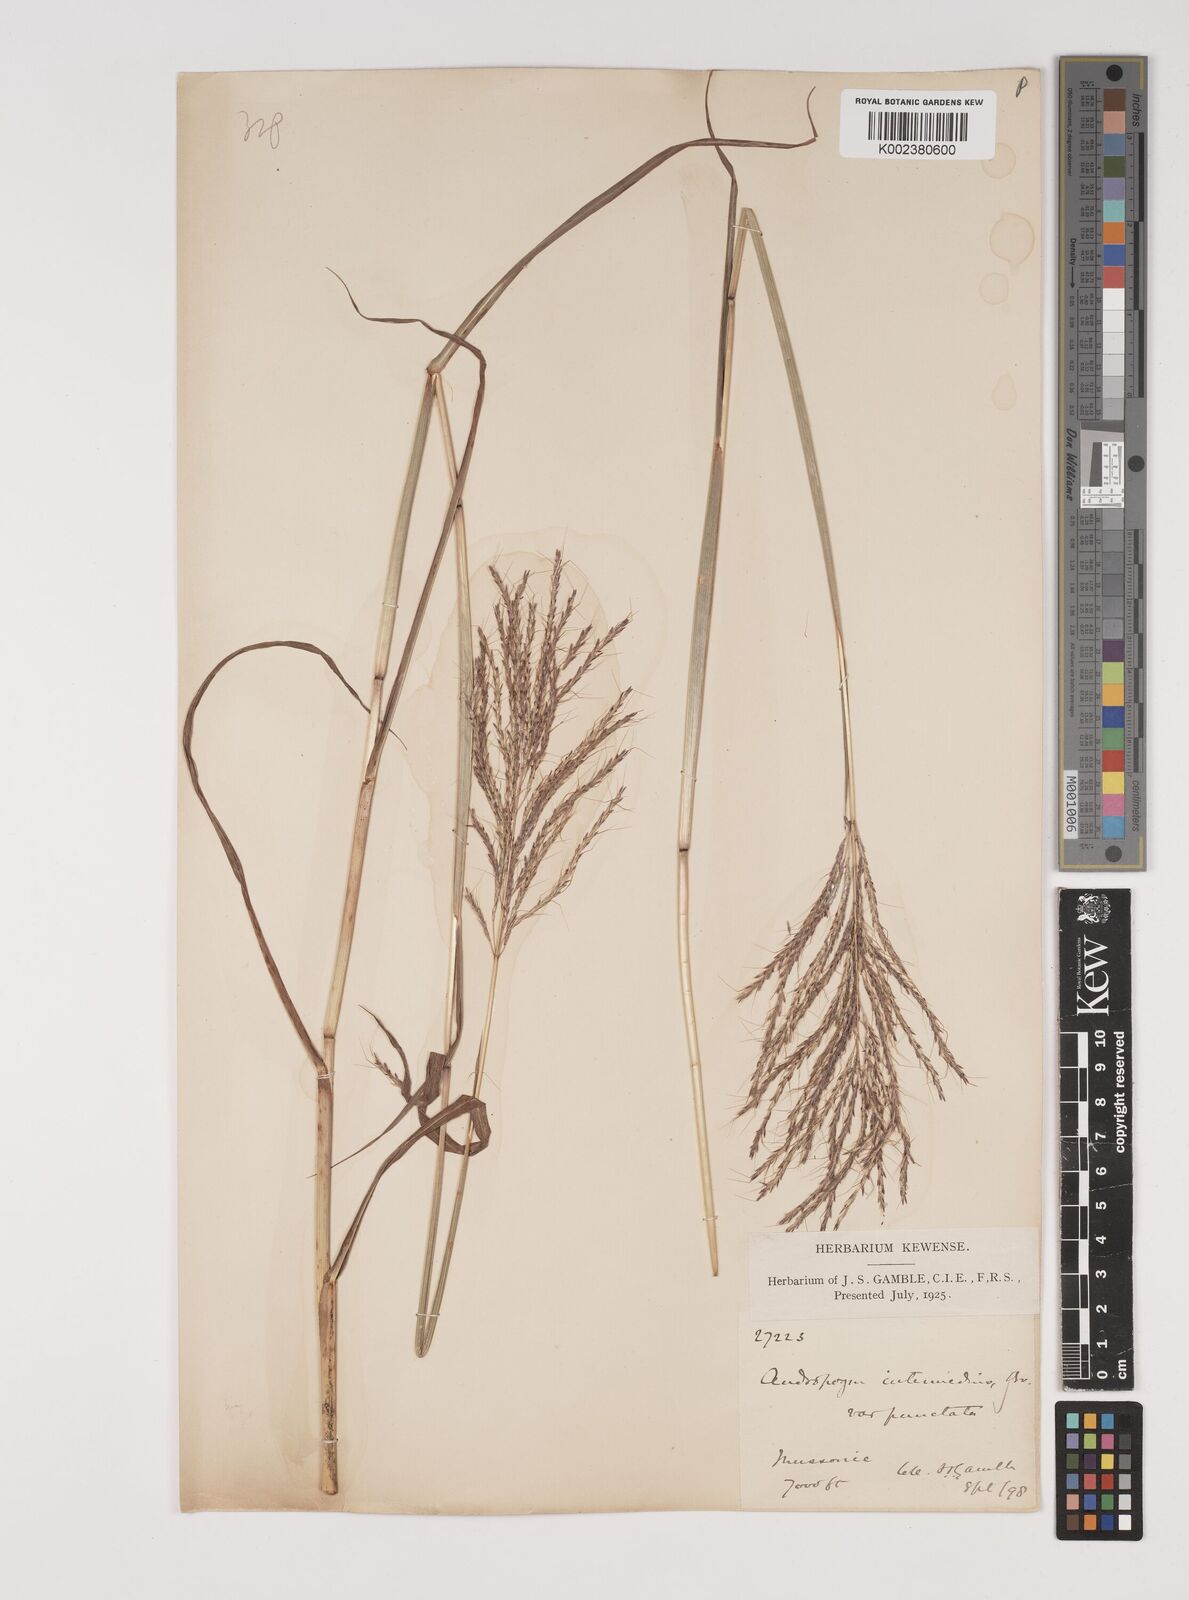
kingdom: Plantae
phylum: Tracheophyta
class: Liliopsida
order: Poales
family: Poaceae
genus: Bothriochloa
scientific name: Bothriochloa bladhii
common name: Caucasian bluestem
